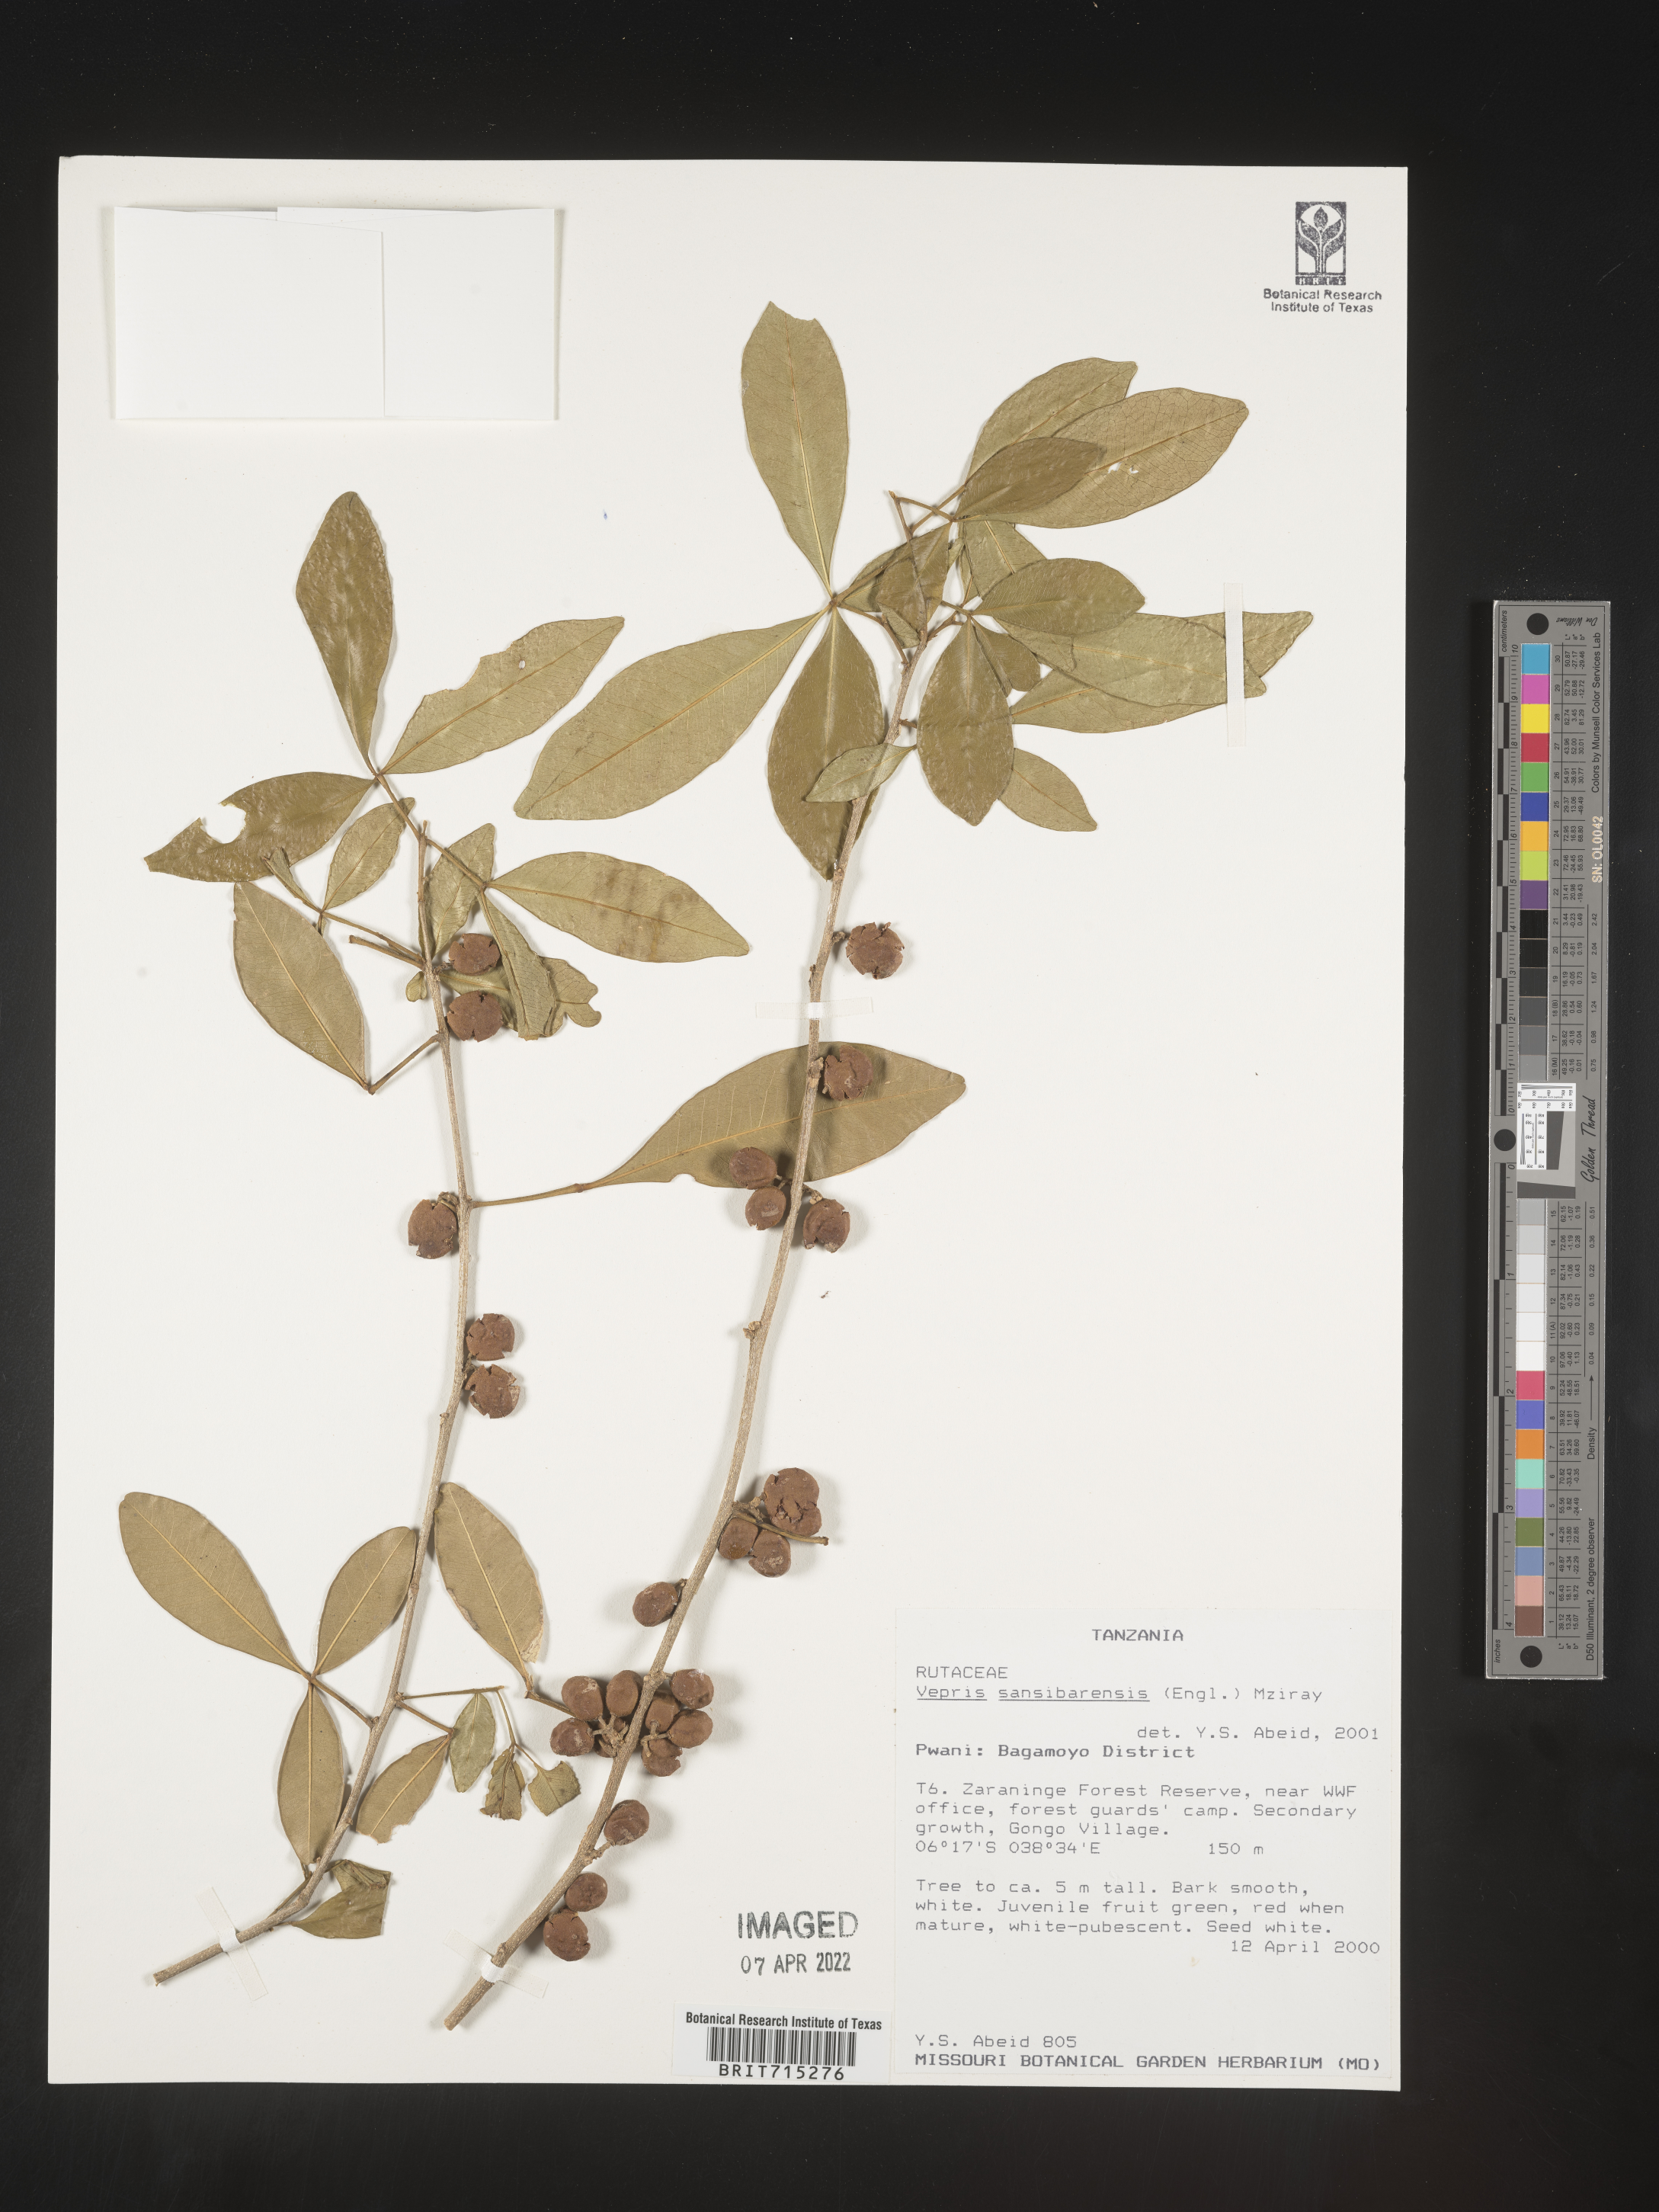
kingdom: Plantae
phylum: Tracheophyta
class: Magnoliopsida
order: Sapindales
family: Rutaceae
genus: Vepris
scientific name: Vepris
